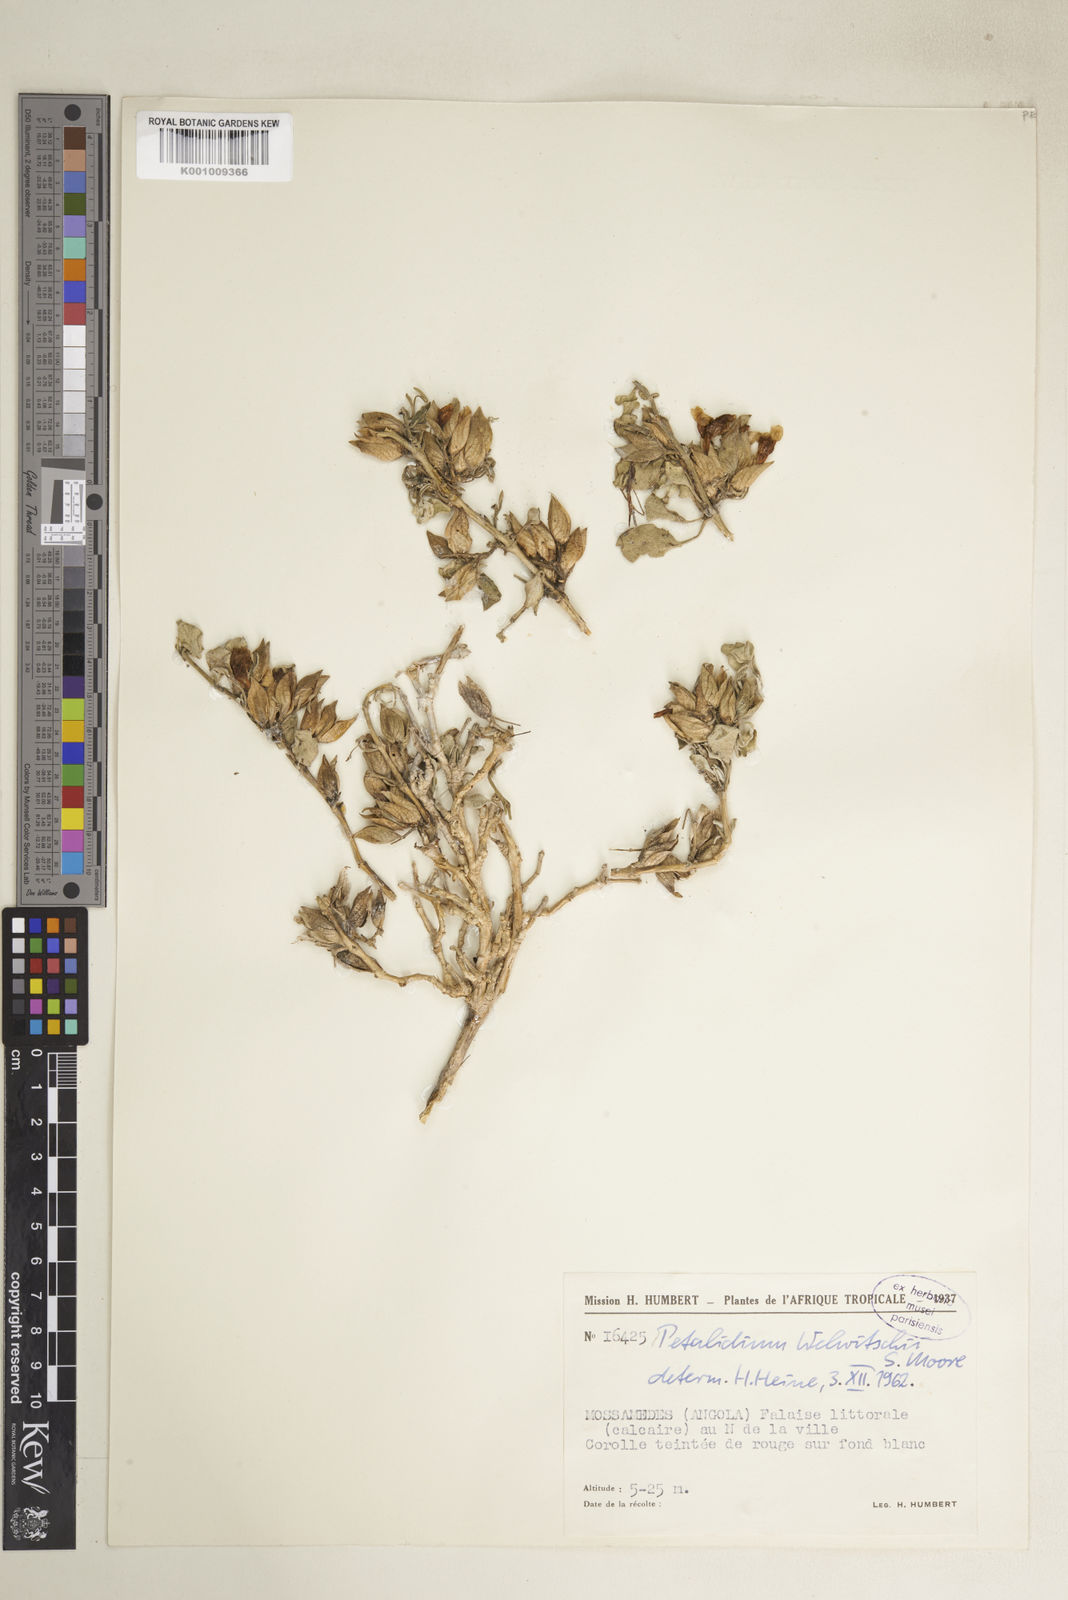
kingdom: Plantae
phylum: Tracheophyta
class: Magnoliopsida
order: Lamiales
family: Acanthaceae
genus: Petalidium
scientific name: Petalidium welwitschii
